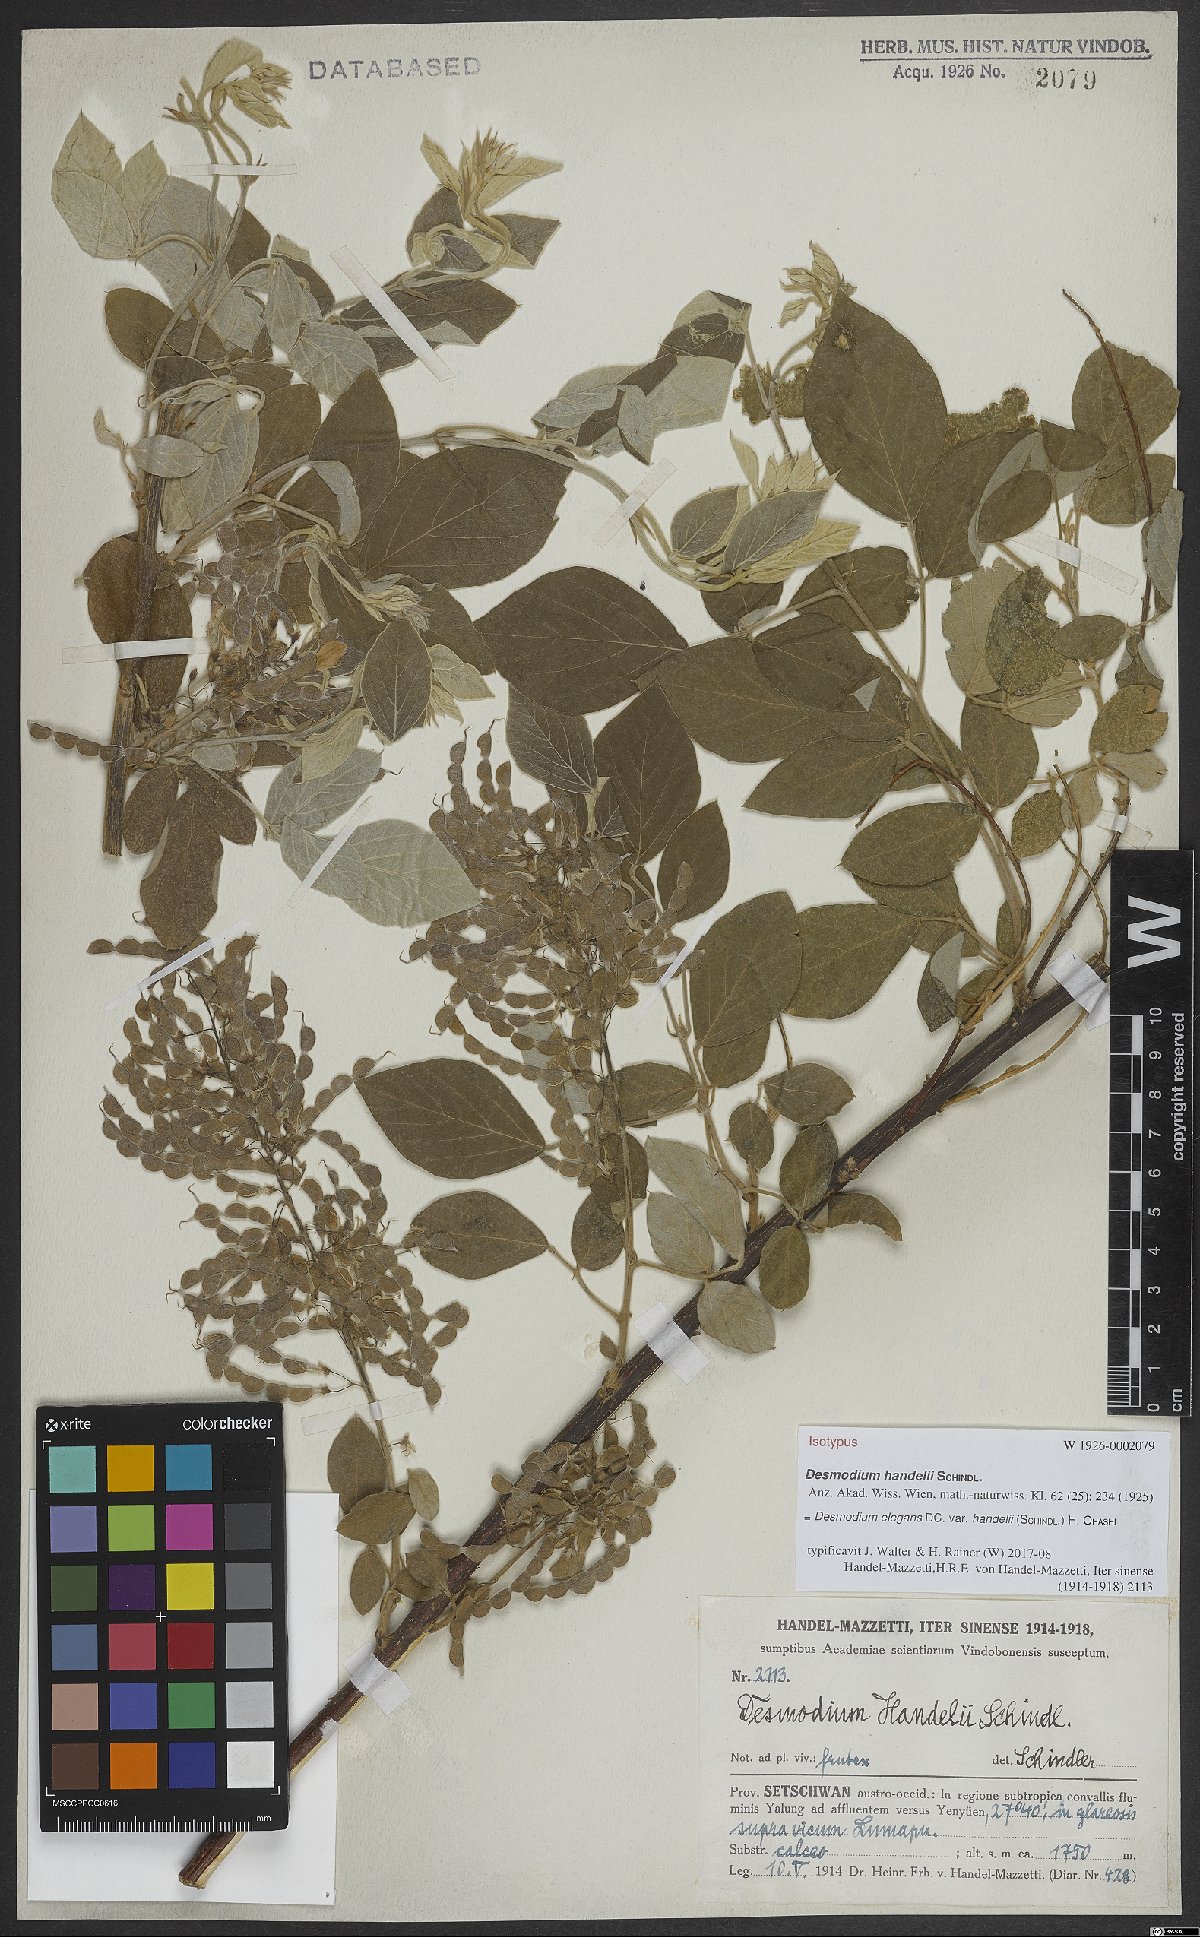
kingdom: Plantae
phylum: Tracheophyta
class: Magnoliopsida
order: Fabales
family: Fabaceae
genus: Sunhangia
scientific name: Sunhangia elegans
